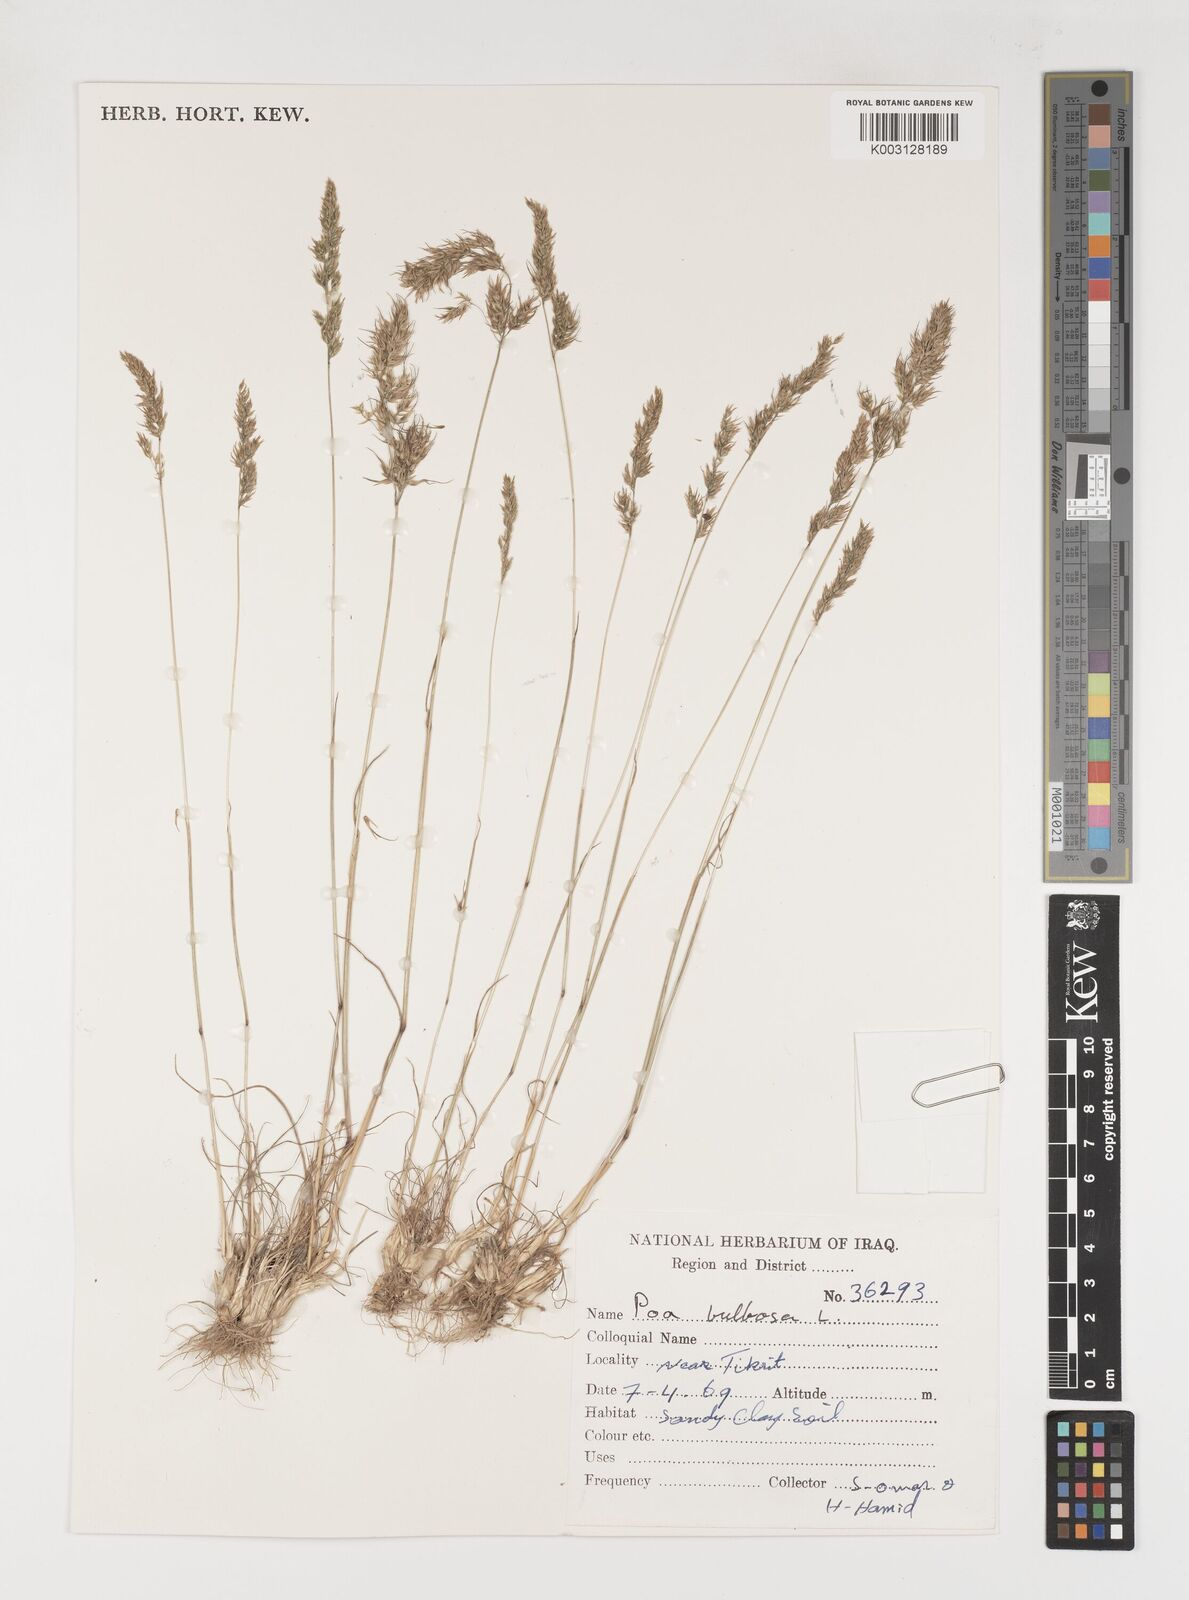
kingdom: Plantae
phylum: Tracheophyta
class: Liliopsida
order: Poales
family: Poaceae
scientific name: Poaceae
